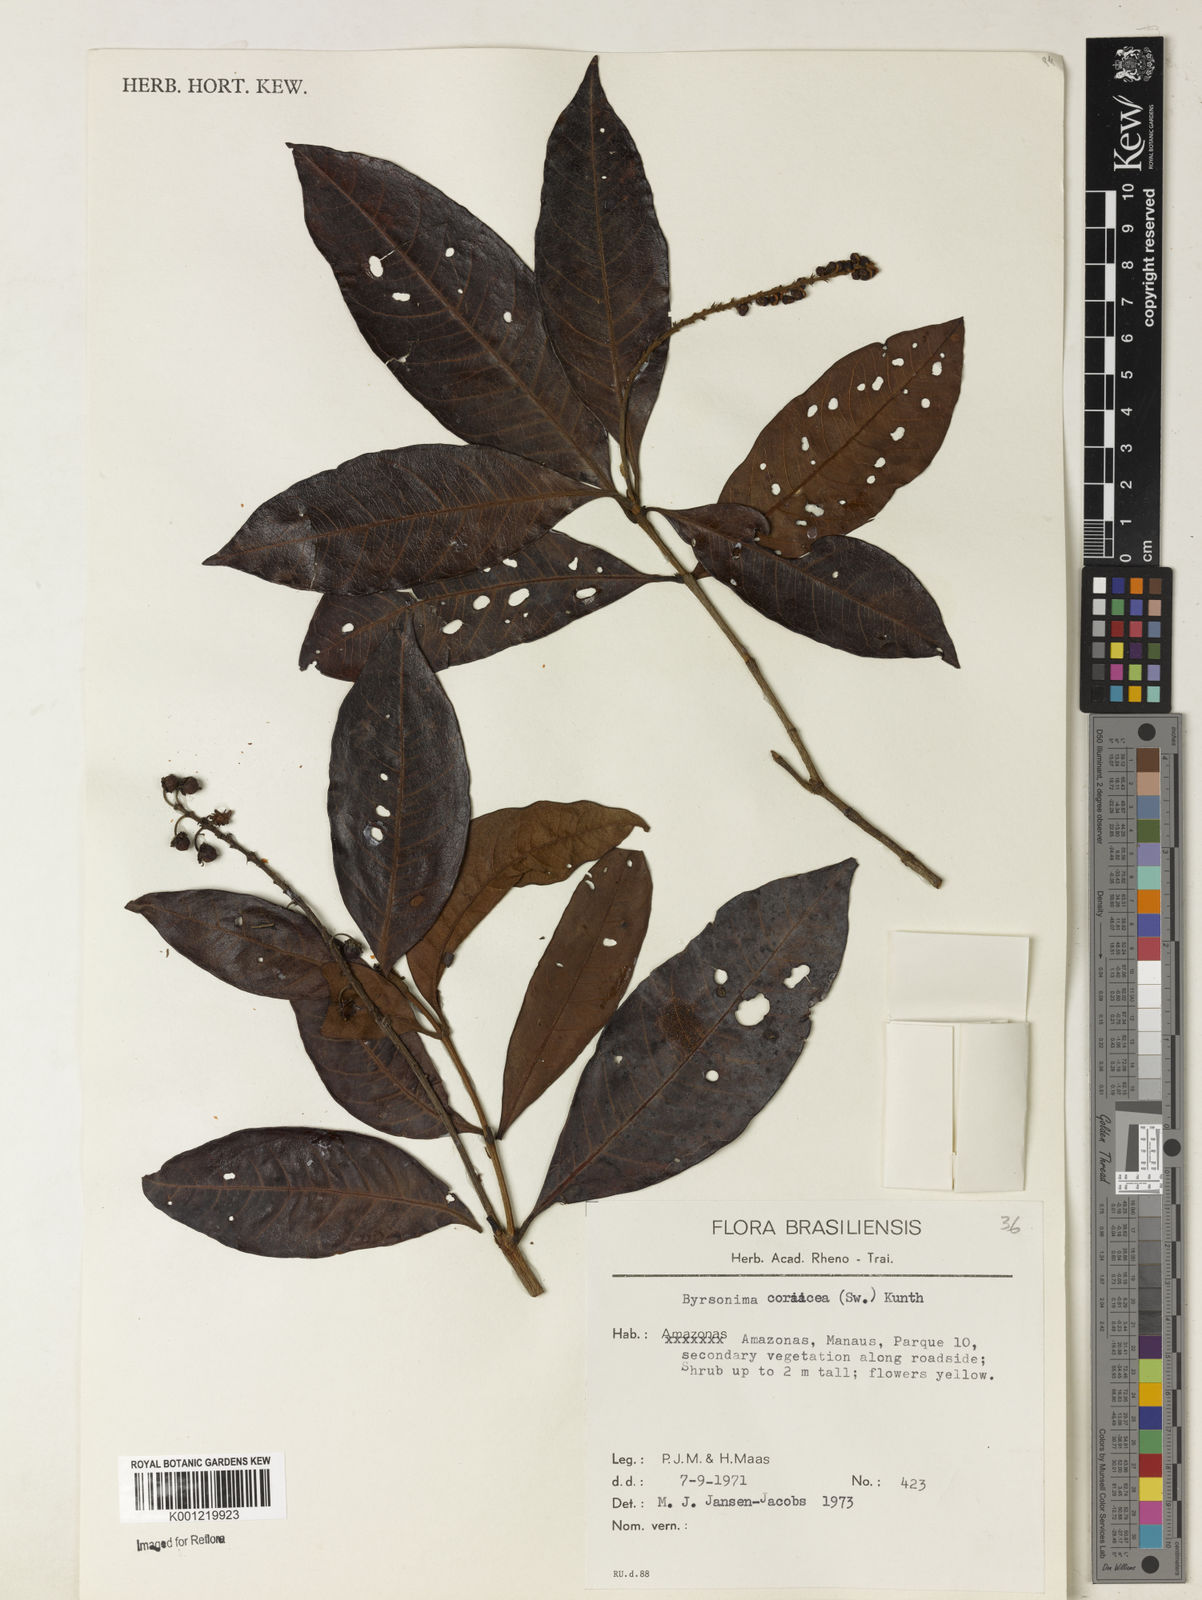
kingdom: Plantae
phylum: Tracheophyta
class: Magnoliopsida
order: Malpighiales
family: Malpighiaceae
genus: Byrsonima
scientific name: Byrsonima
